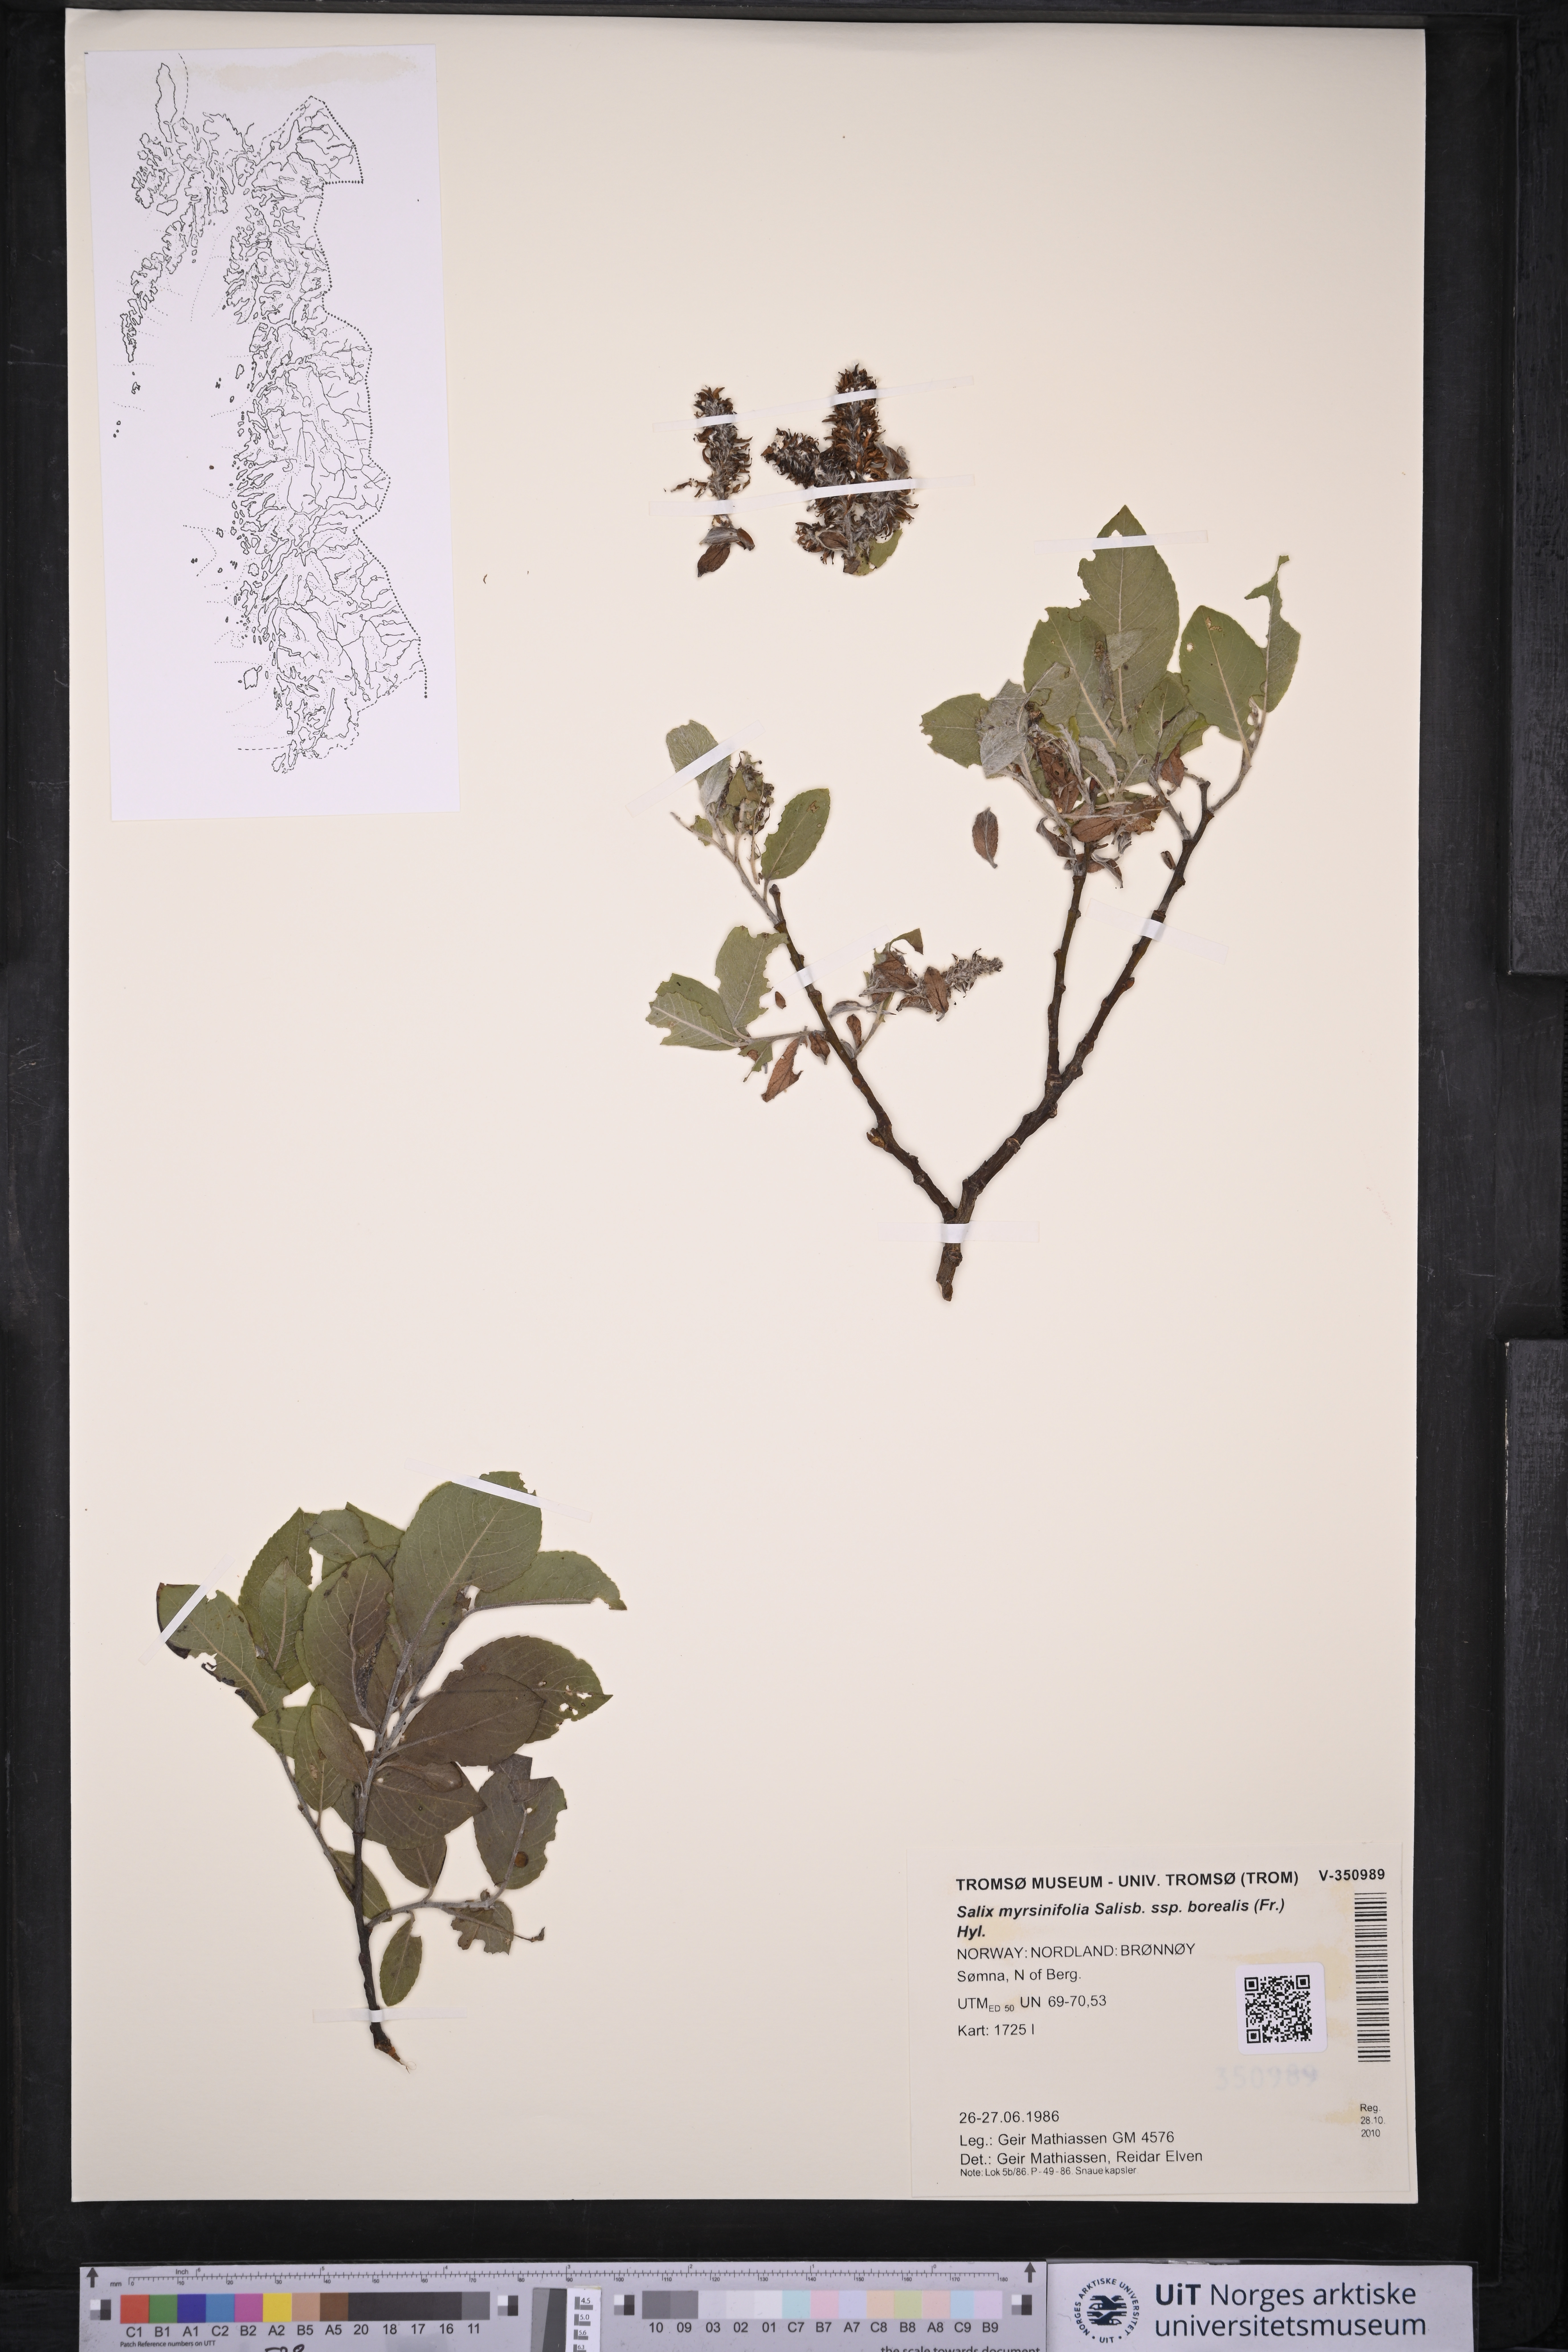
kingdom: Plantae
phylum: Tracheophyta
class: Magnoliopsida
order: Malpighiales
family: Salicaceae
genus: Salix
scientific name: Salix myrsinifolia
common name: Dark-leaved willow
